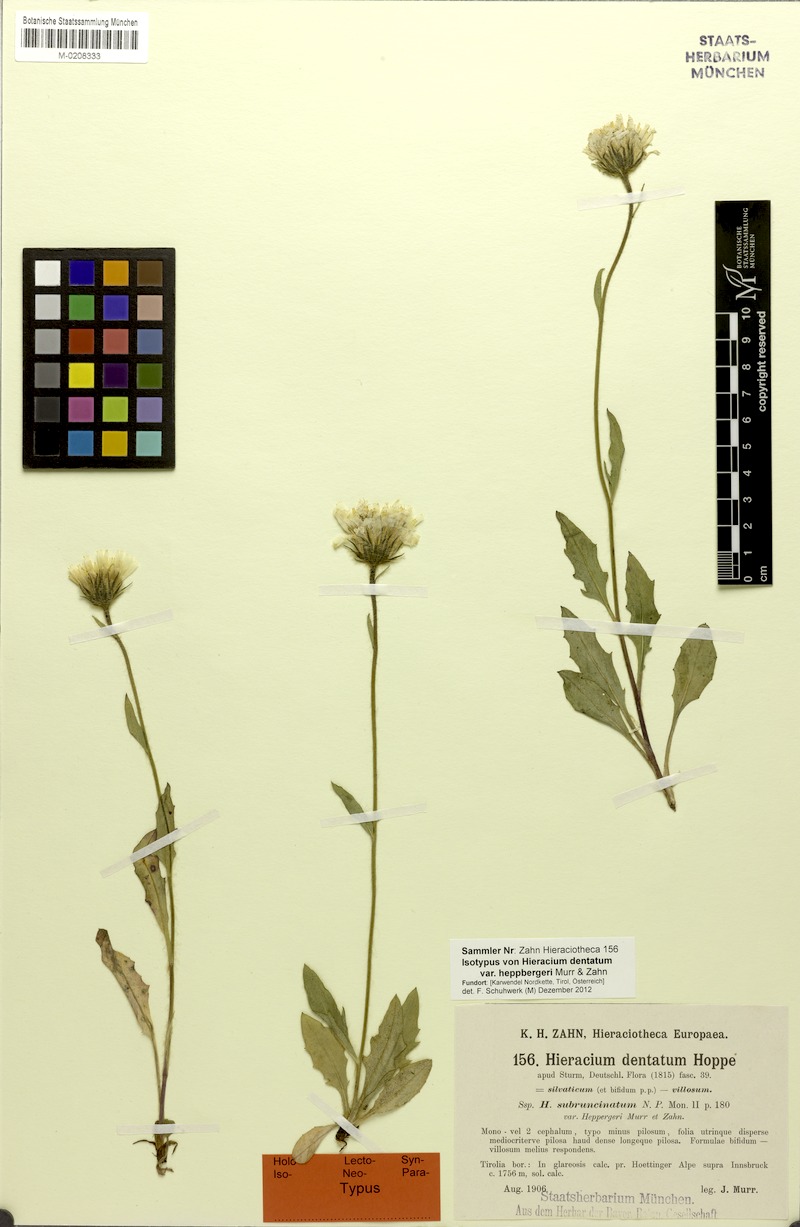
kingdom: Plantae
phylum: Tracheophyta
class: Magnoliopsida
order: Asterales
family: Asteraceae
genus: Hieracium
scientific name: Hieracium dentatum
